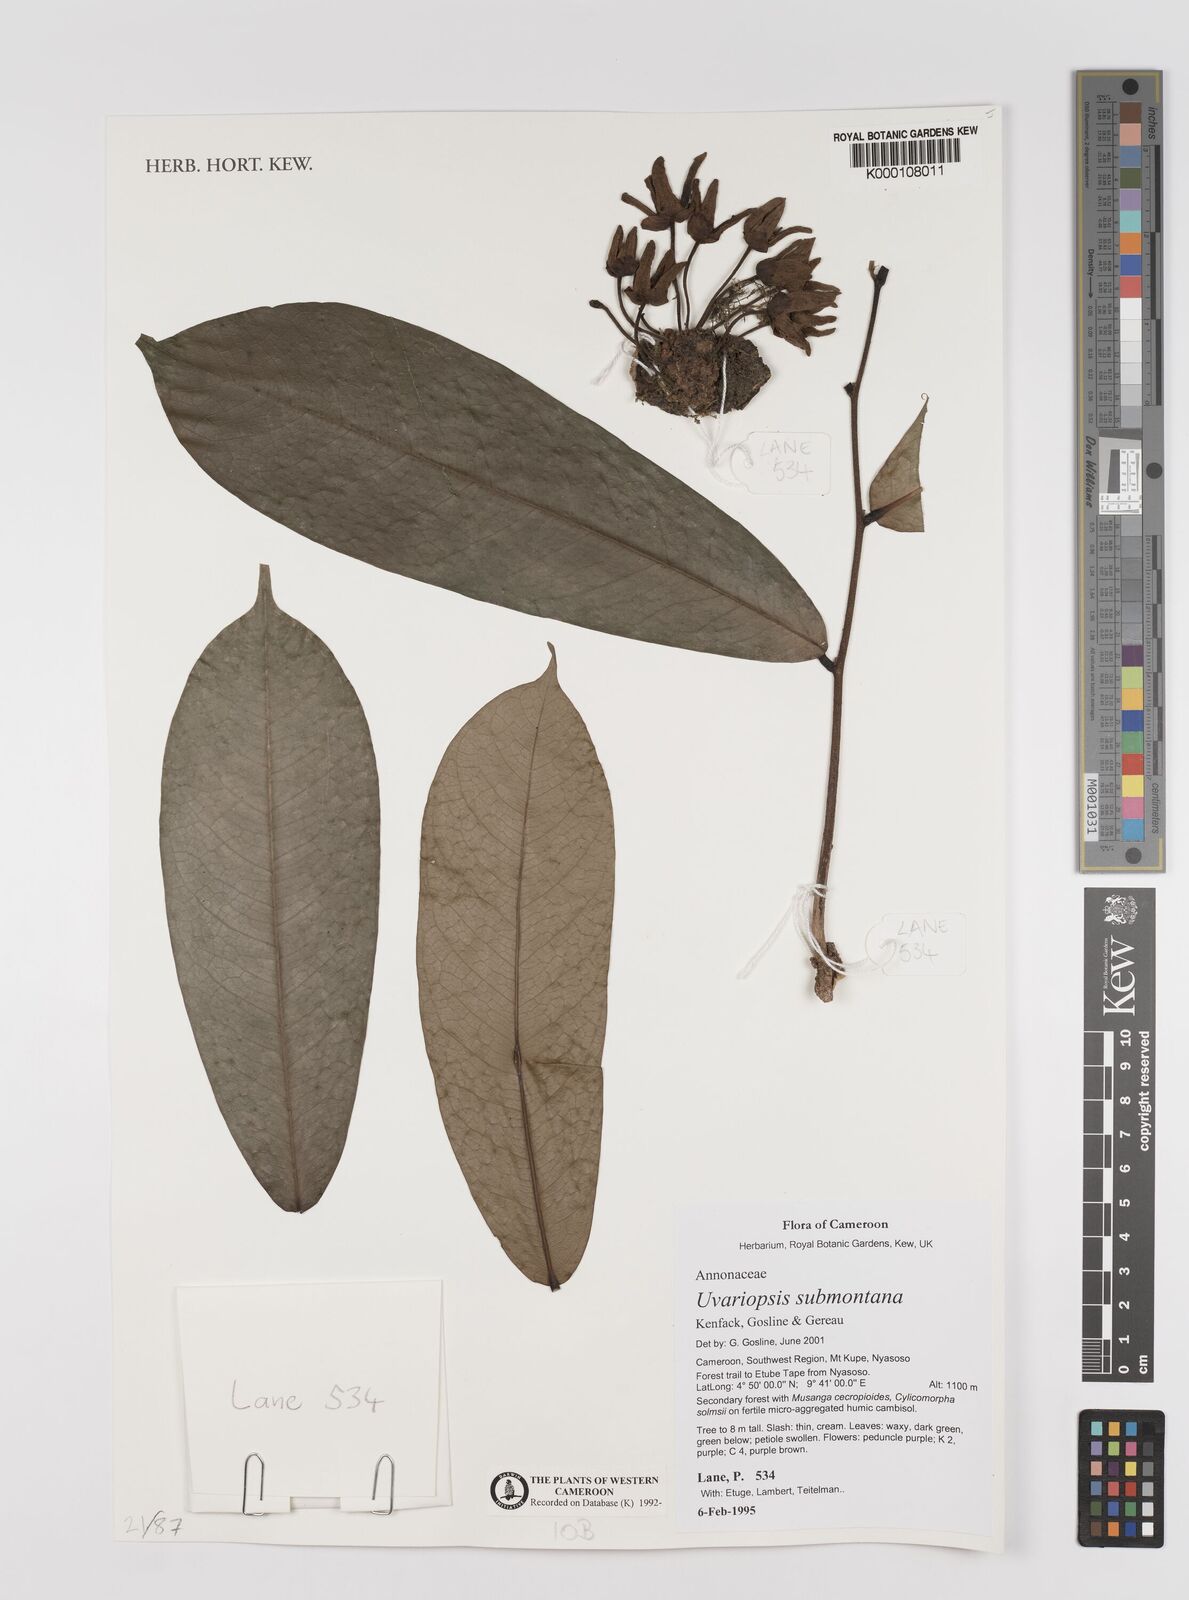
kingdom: Plantae
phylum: Tracheophyta
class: Magnoliopsida
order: Magnoliales
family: Annonaceae
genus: Uvariopsis
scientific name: Uvariopsis submontana
